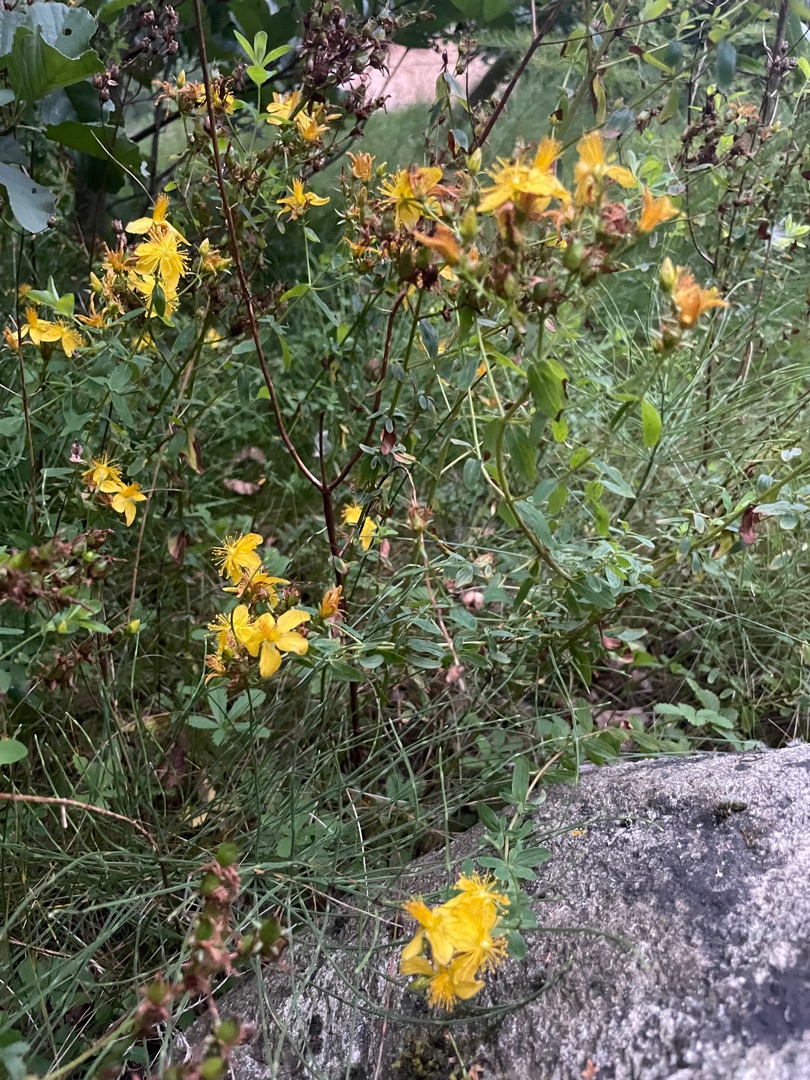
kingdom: Plantae
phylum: Tracheophyta
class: Magnoliopsida
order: Malpighiales
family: Hypericaceae
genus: Hypericum
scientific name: Hypericum perforatum
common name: Prikbladet perikon
